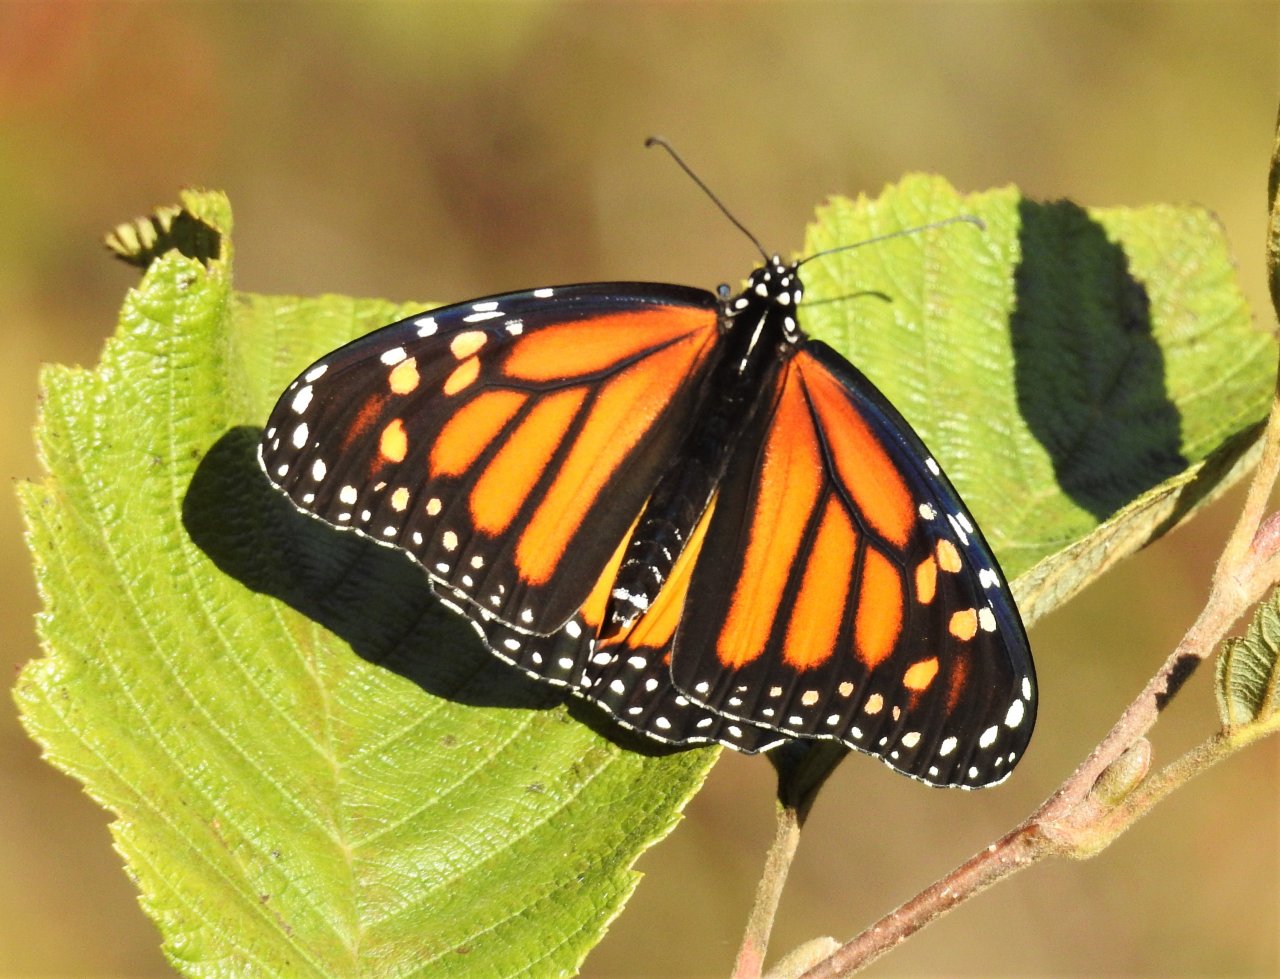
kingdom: Animalia
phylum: Arthropoda
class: Insecta
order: Lepidoptera
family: Nymphalidae
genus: Danaus
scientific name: Danaus plexippus
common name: Monarch
